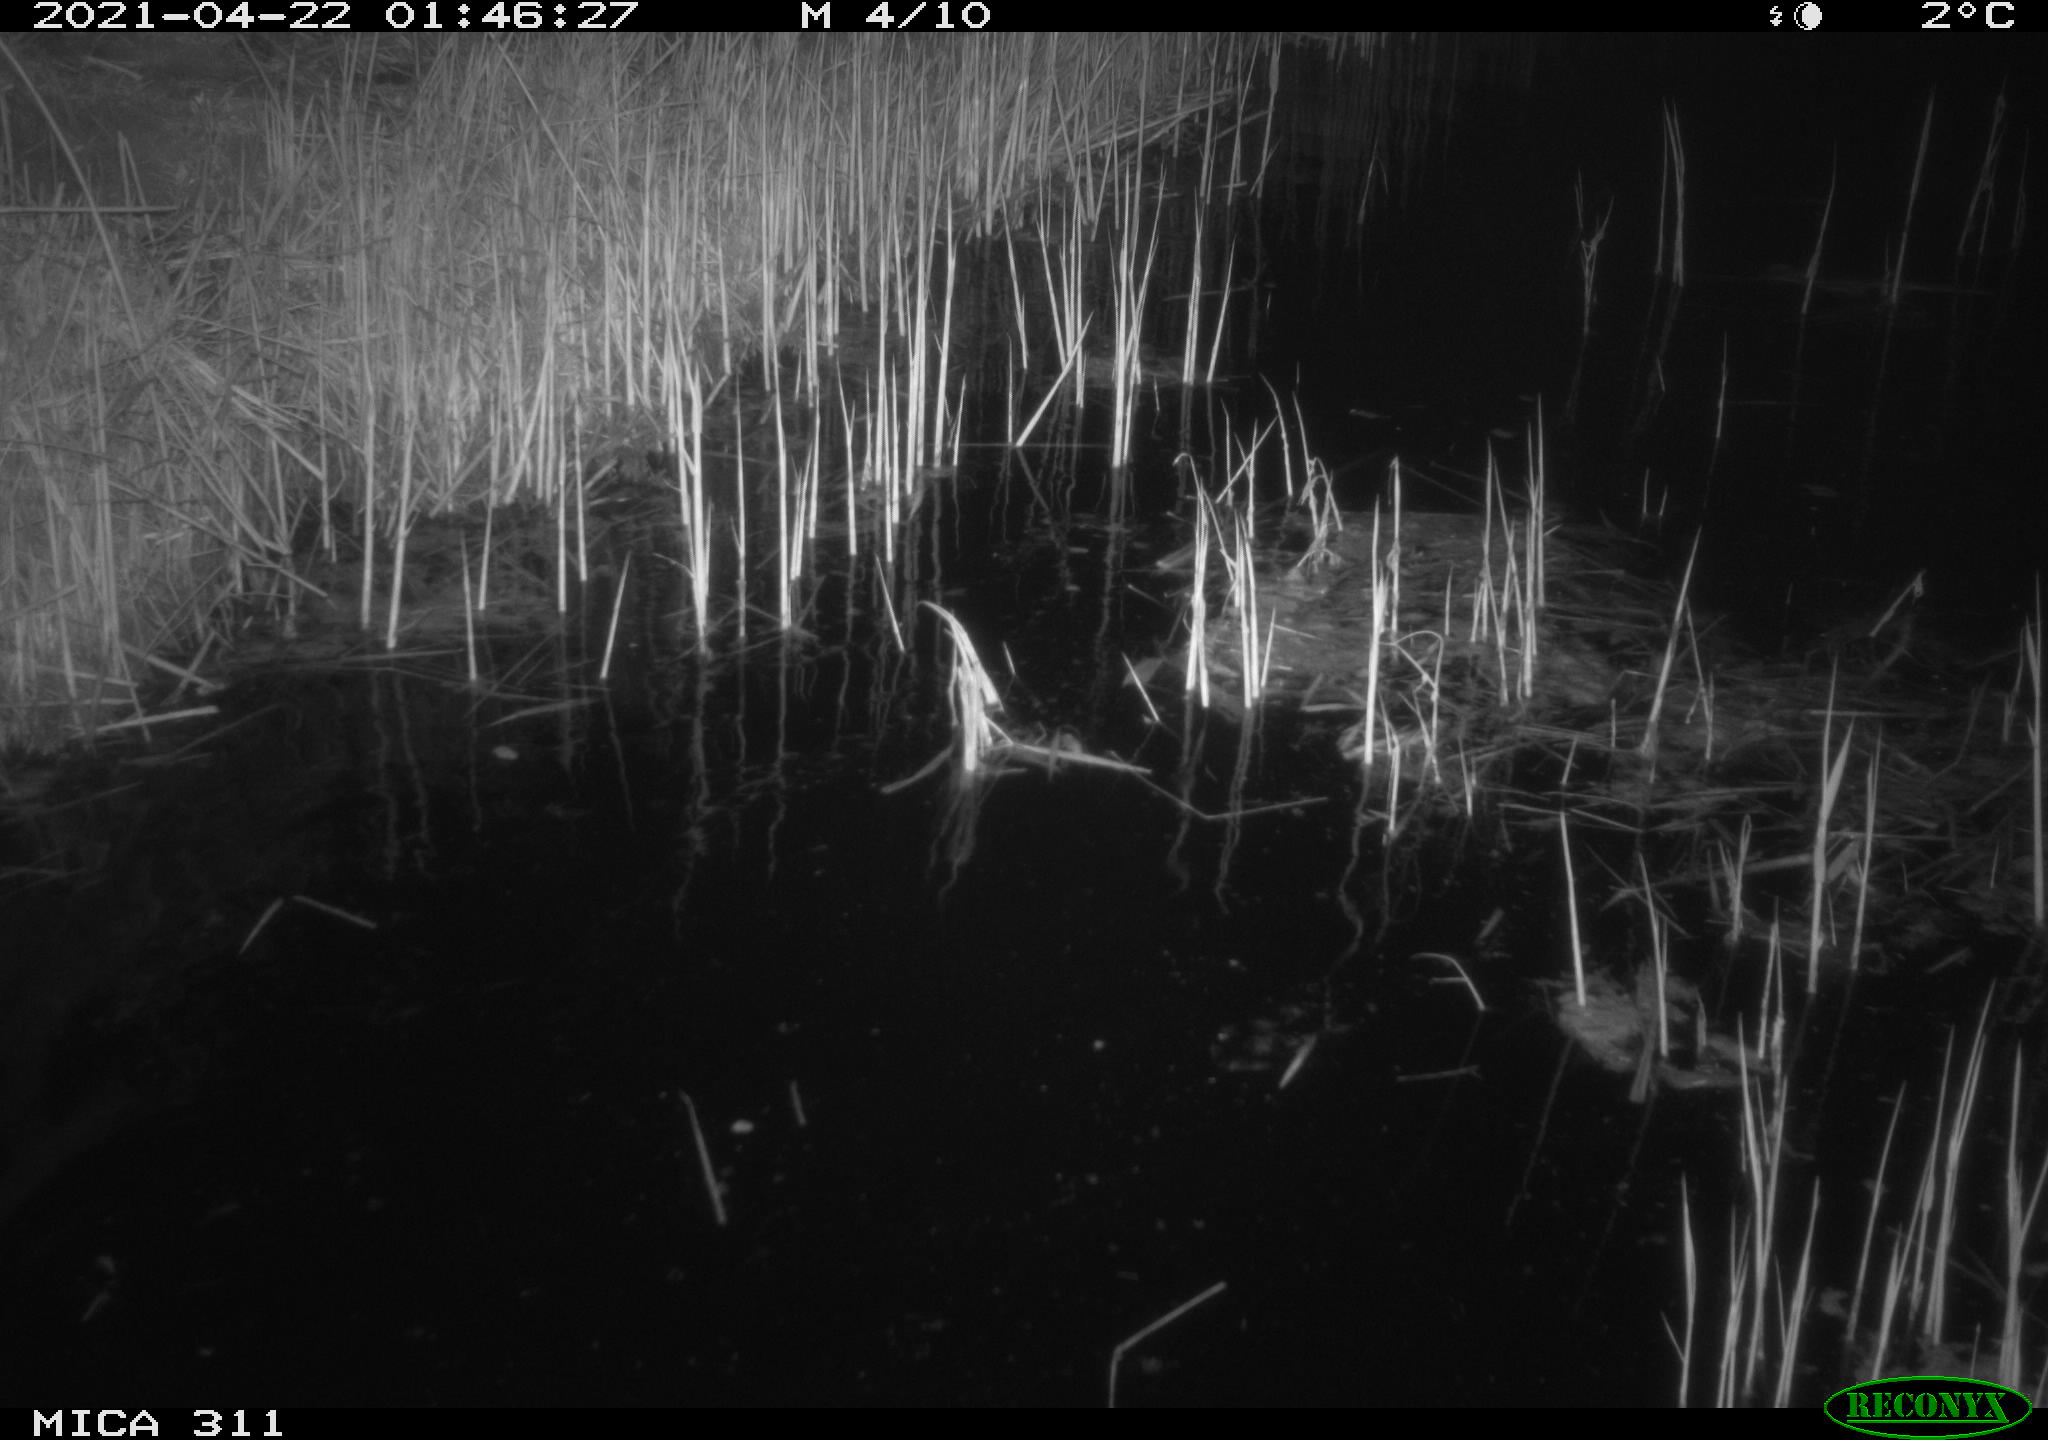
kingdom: Animalia
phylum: Chordata
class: Mammalia
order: Rodentia
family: Cricetidae
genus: Ondatra
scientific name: Ondatra zibethicus
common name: Muskrat
